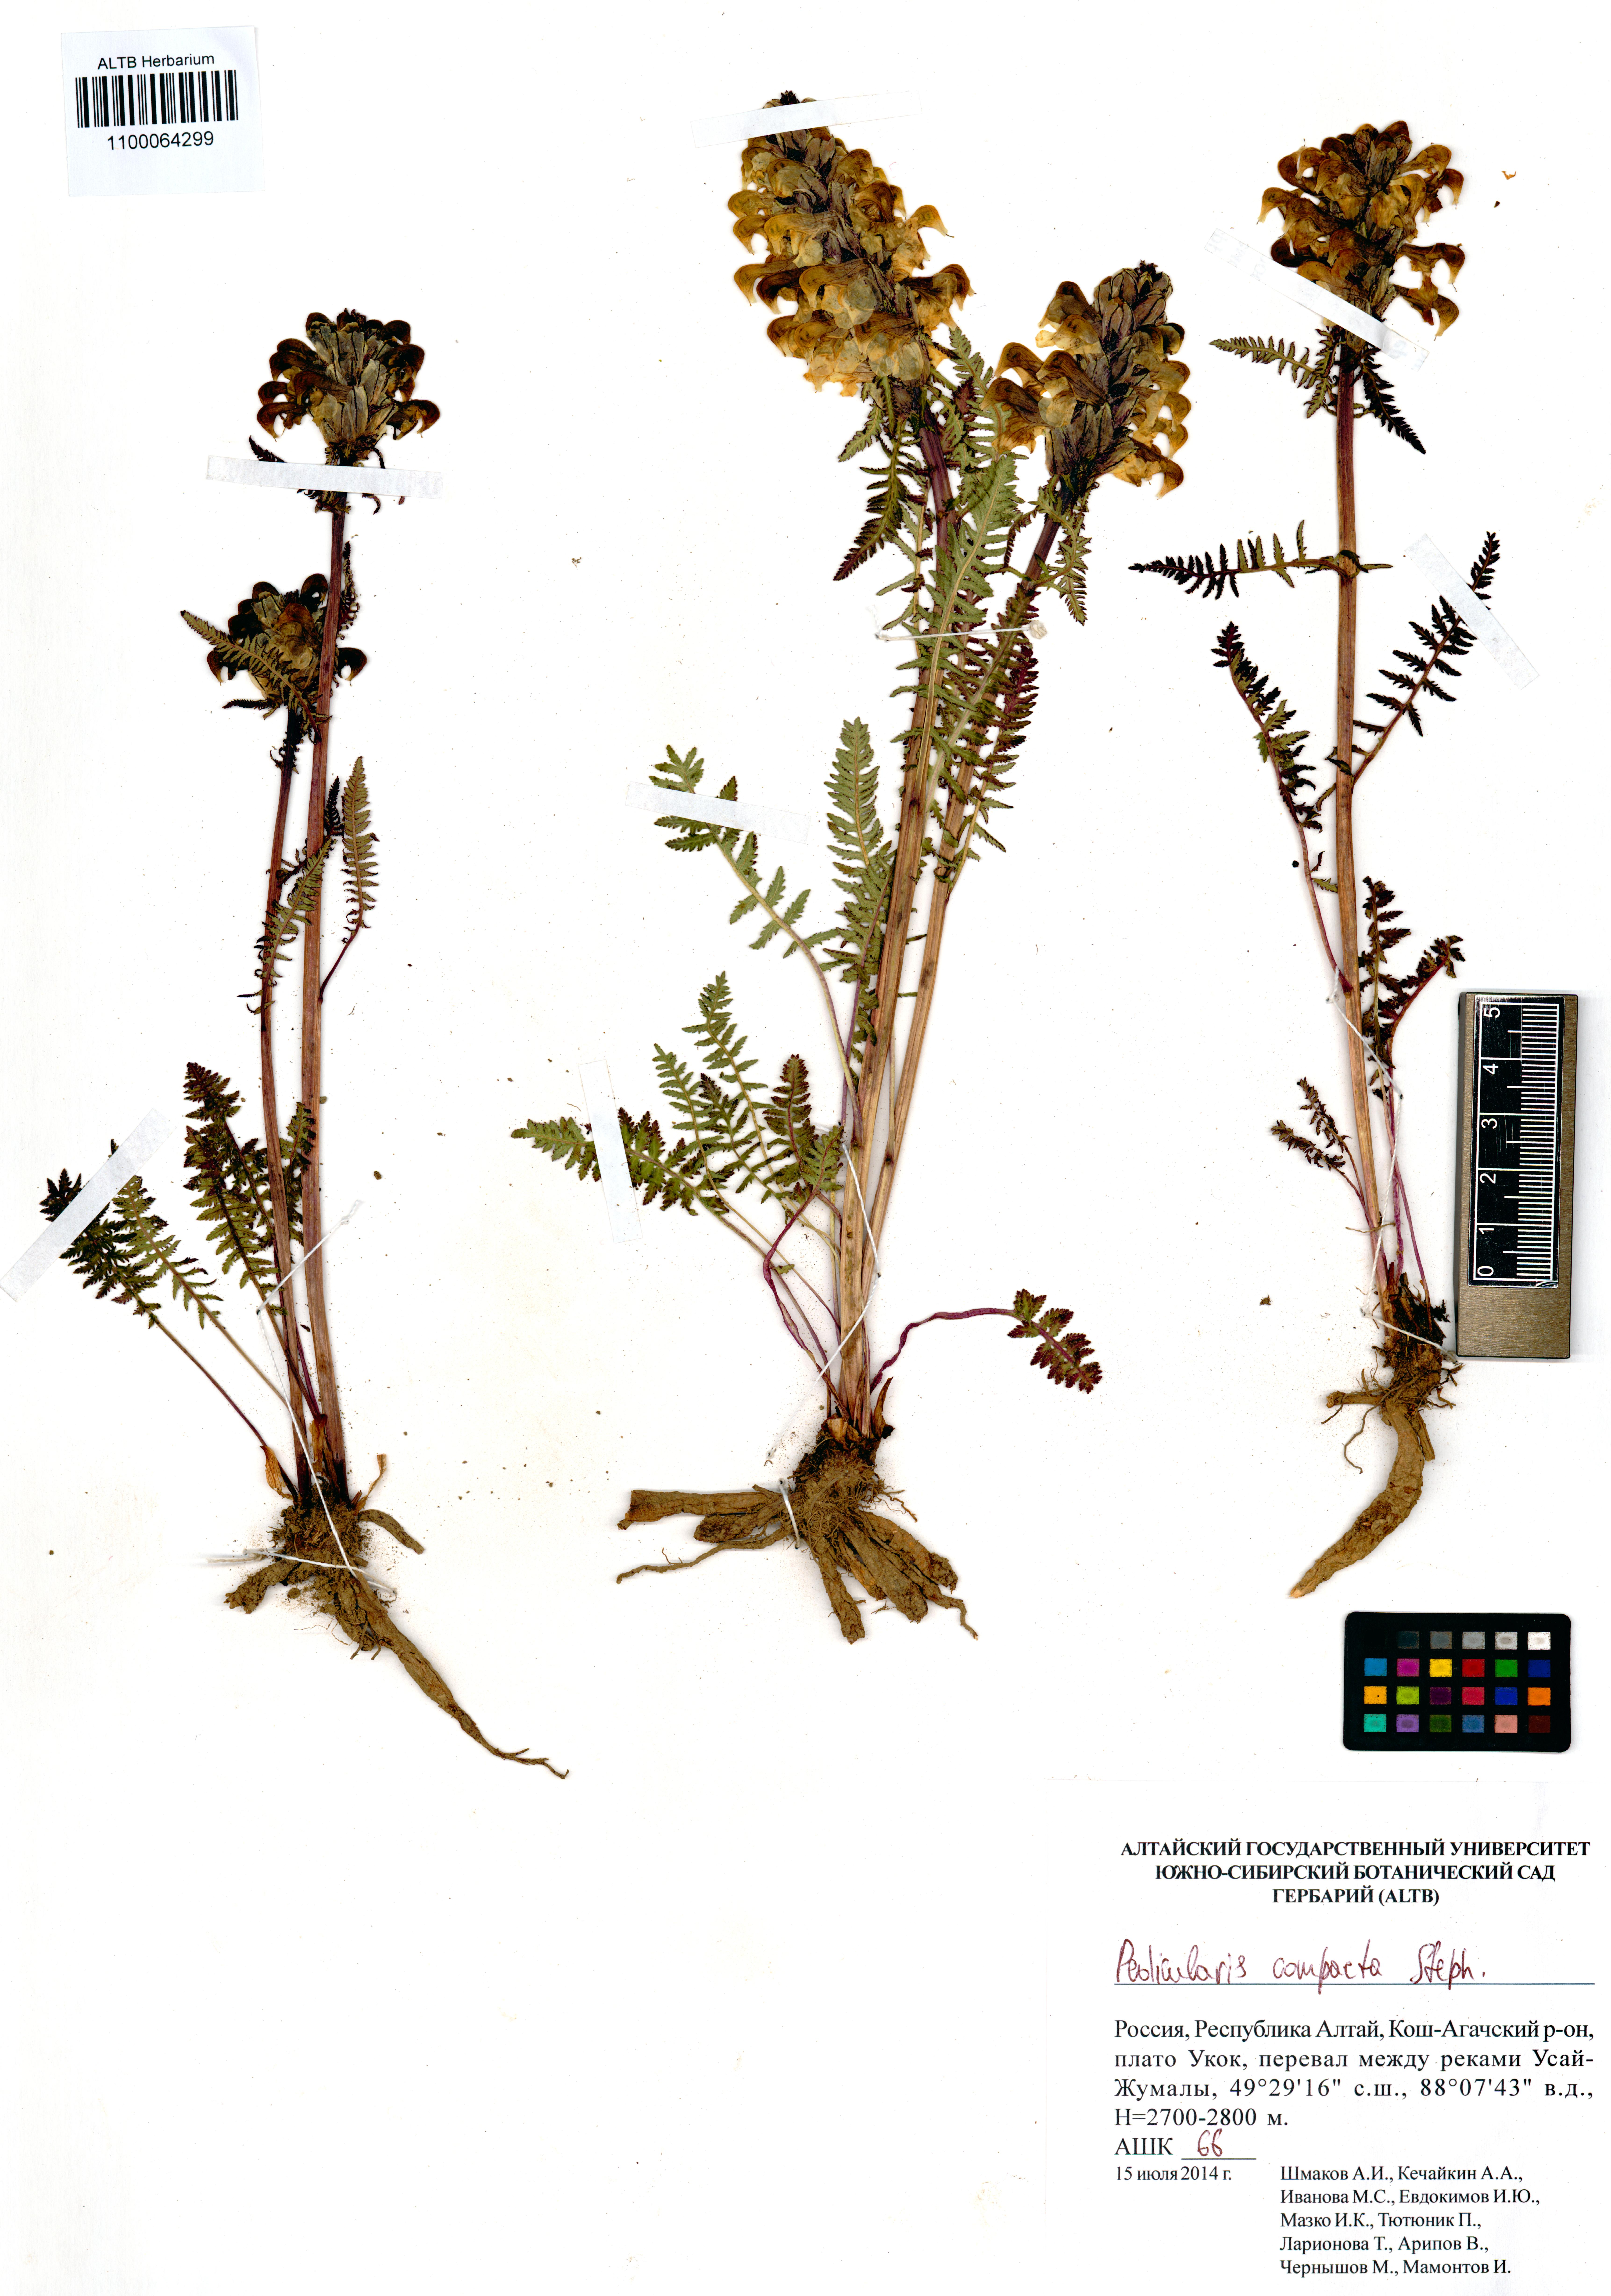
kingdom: Plantae
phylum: Tracheophyta
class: Magnoliopsida
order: Lamiales
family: Orobanchaceae
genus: Pedicularis
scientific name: Pedicularis compacta
